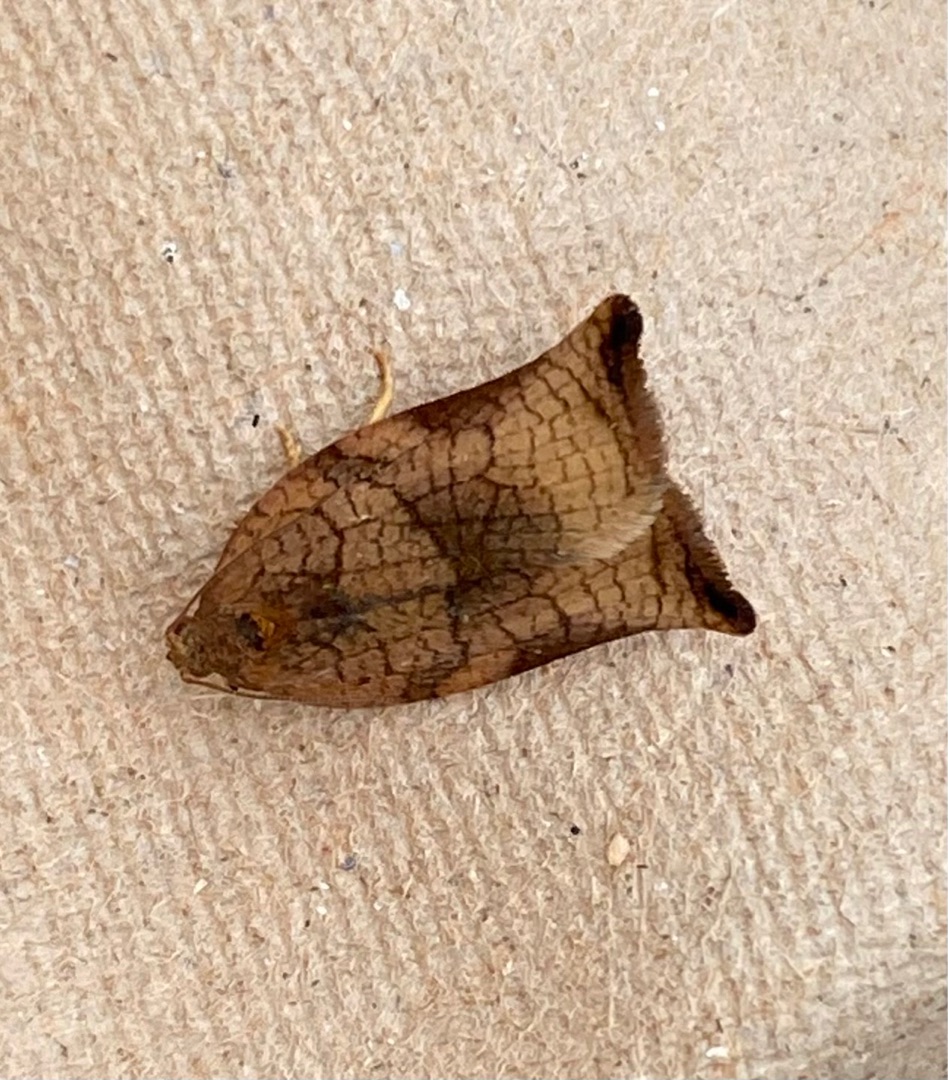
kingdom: Animalia
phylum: Arthropoda
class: Insecta
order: Lepidoptera
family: Tortricidae
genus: Archips
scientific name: Archips podana
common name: Frugttræsommervikler
